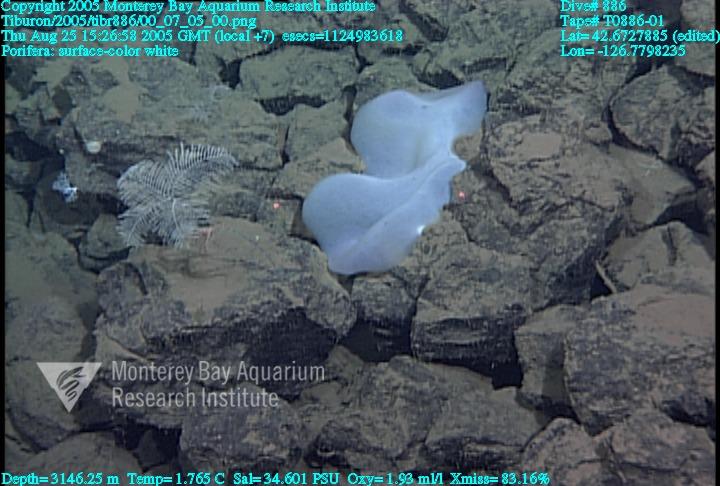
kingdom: Animalia
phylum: Porifera
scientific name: Porifera
